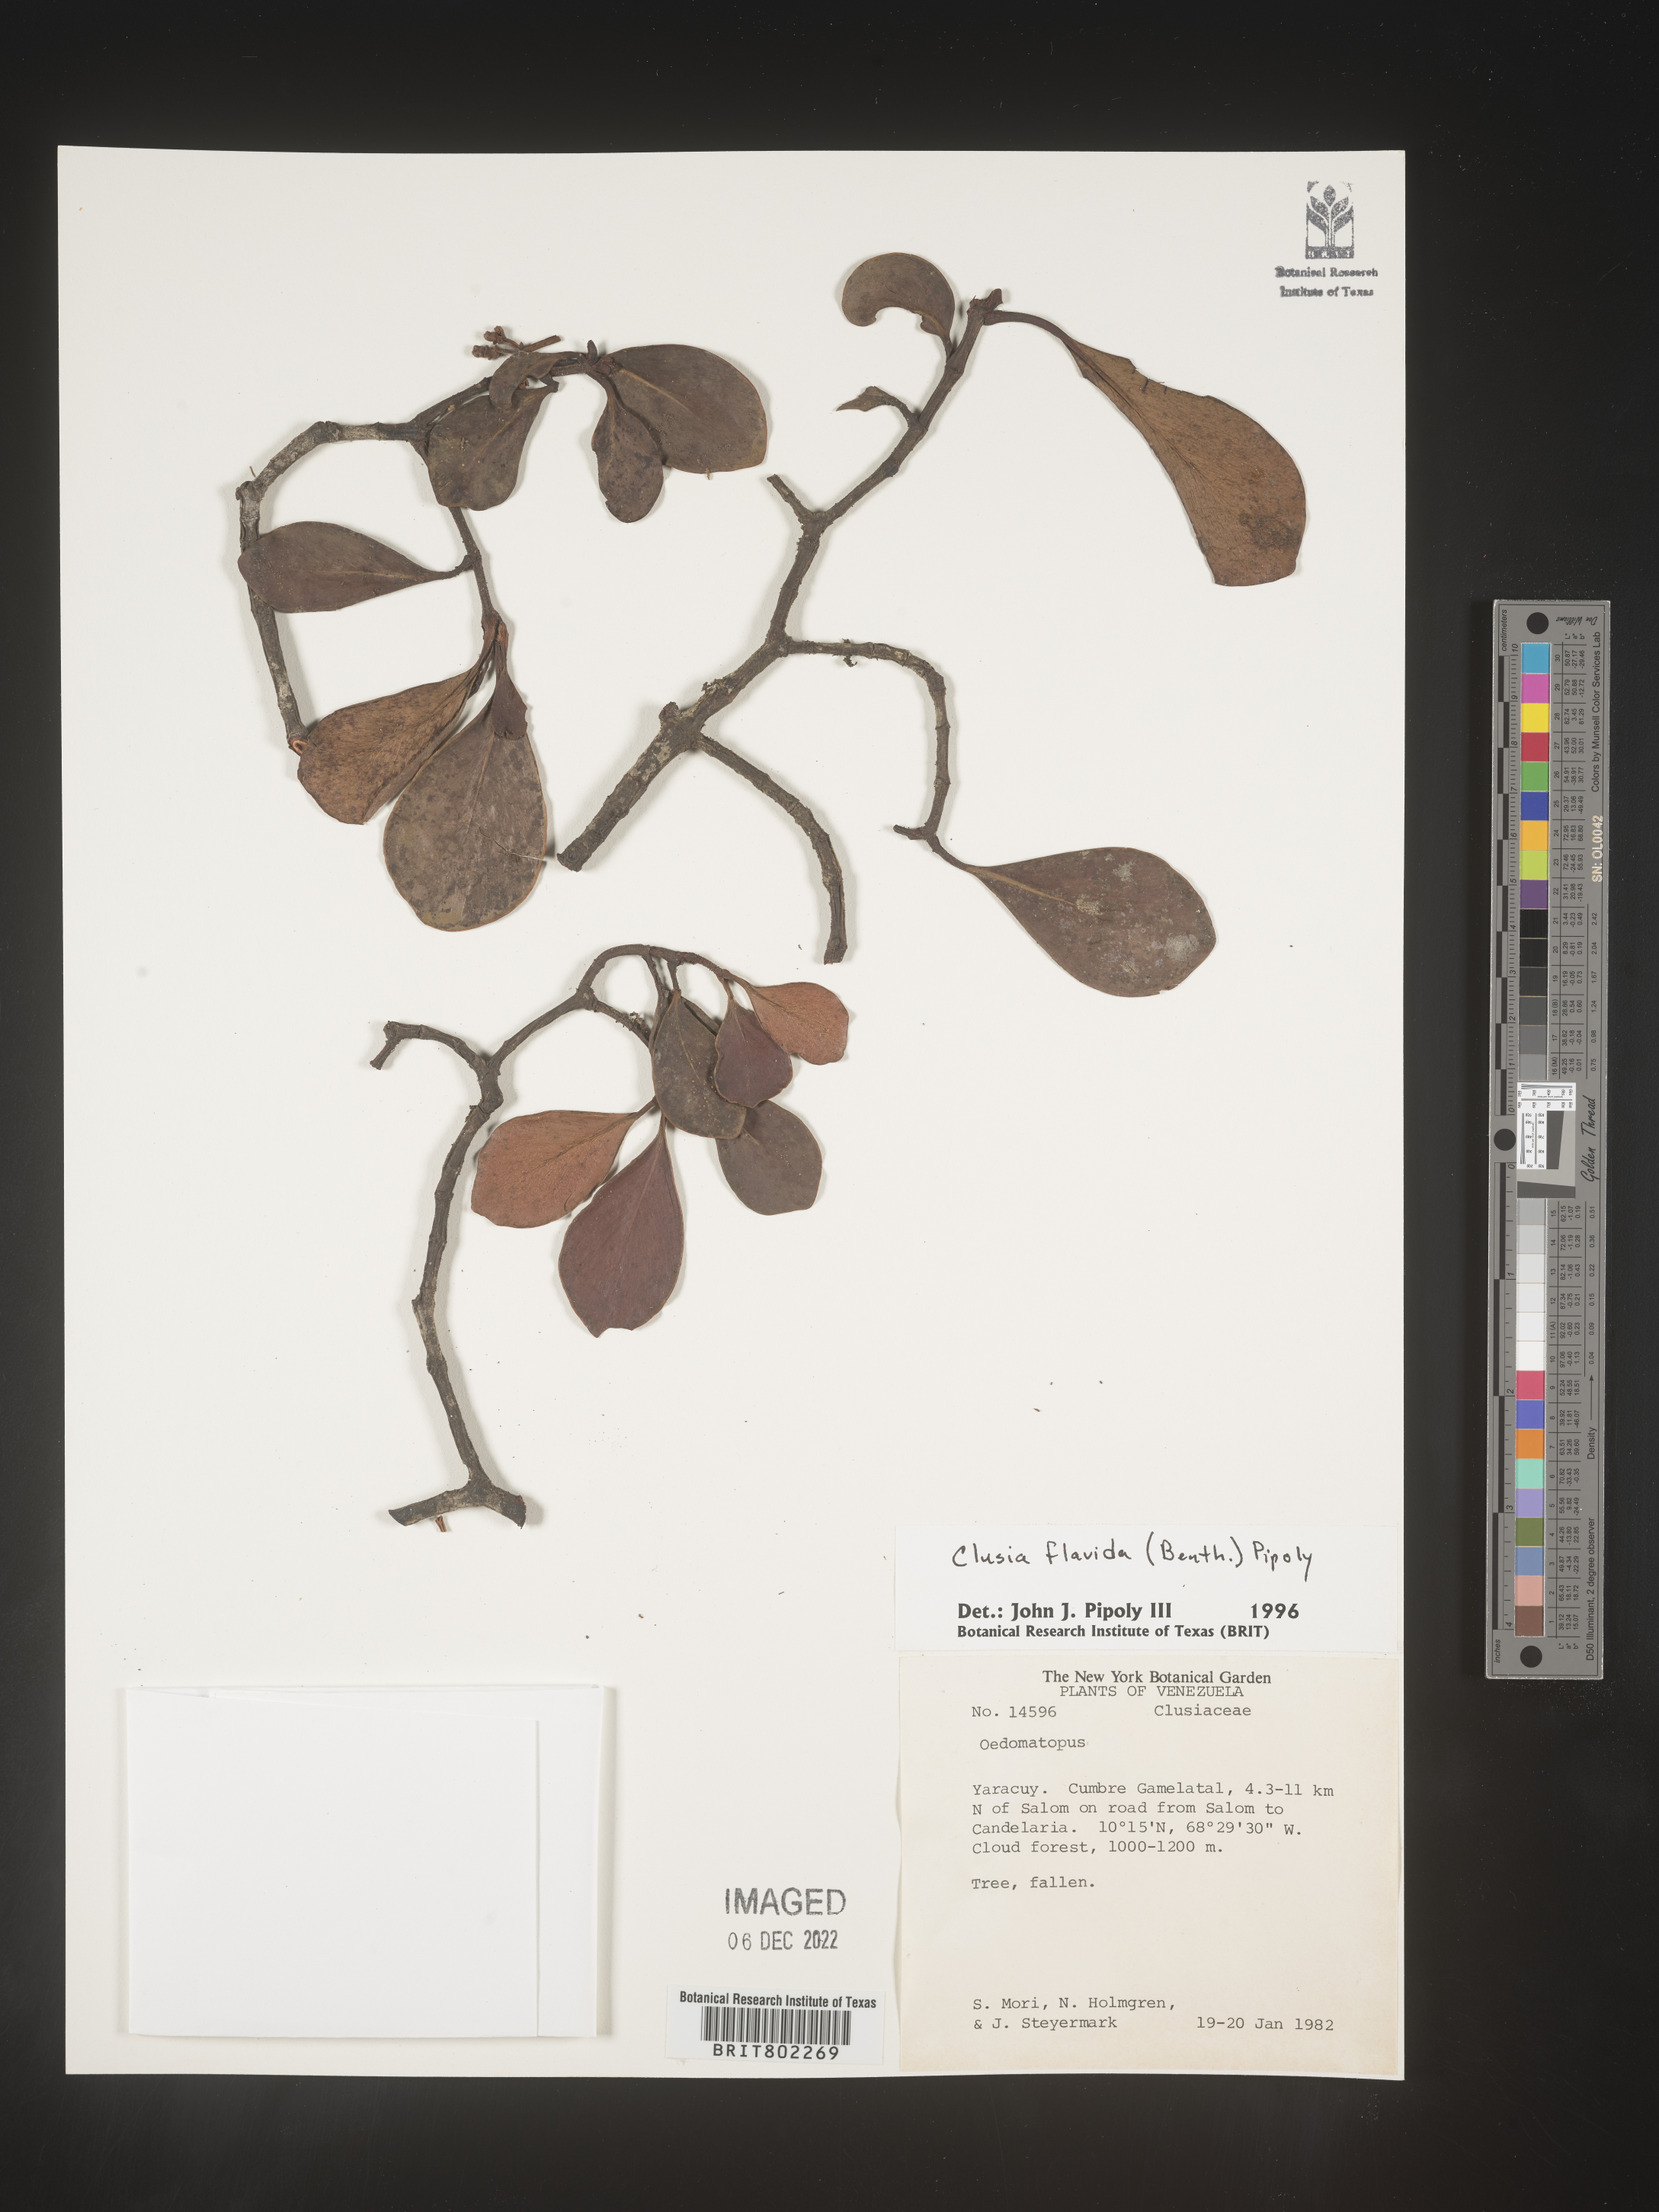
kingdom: Plantae
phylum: Tracheophyta
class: Magnoliopsida
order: Malpighiales
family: Clusiaceae
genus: Clusia
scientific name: Clusia flavida
